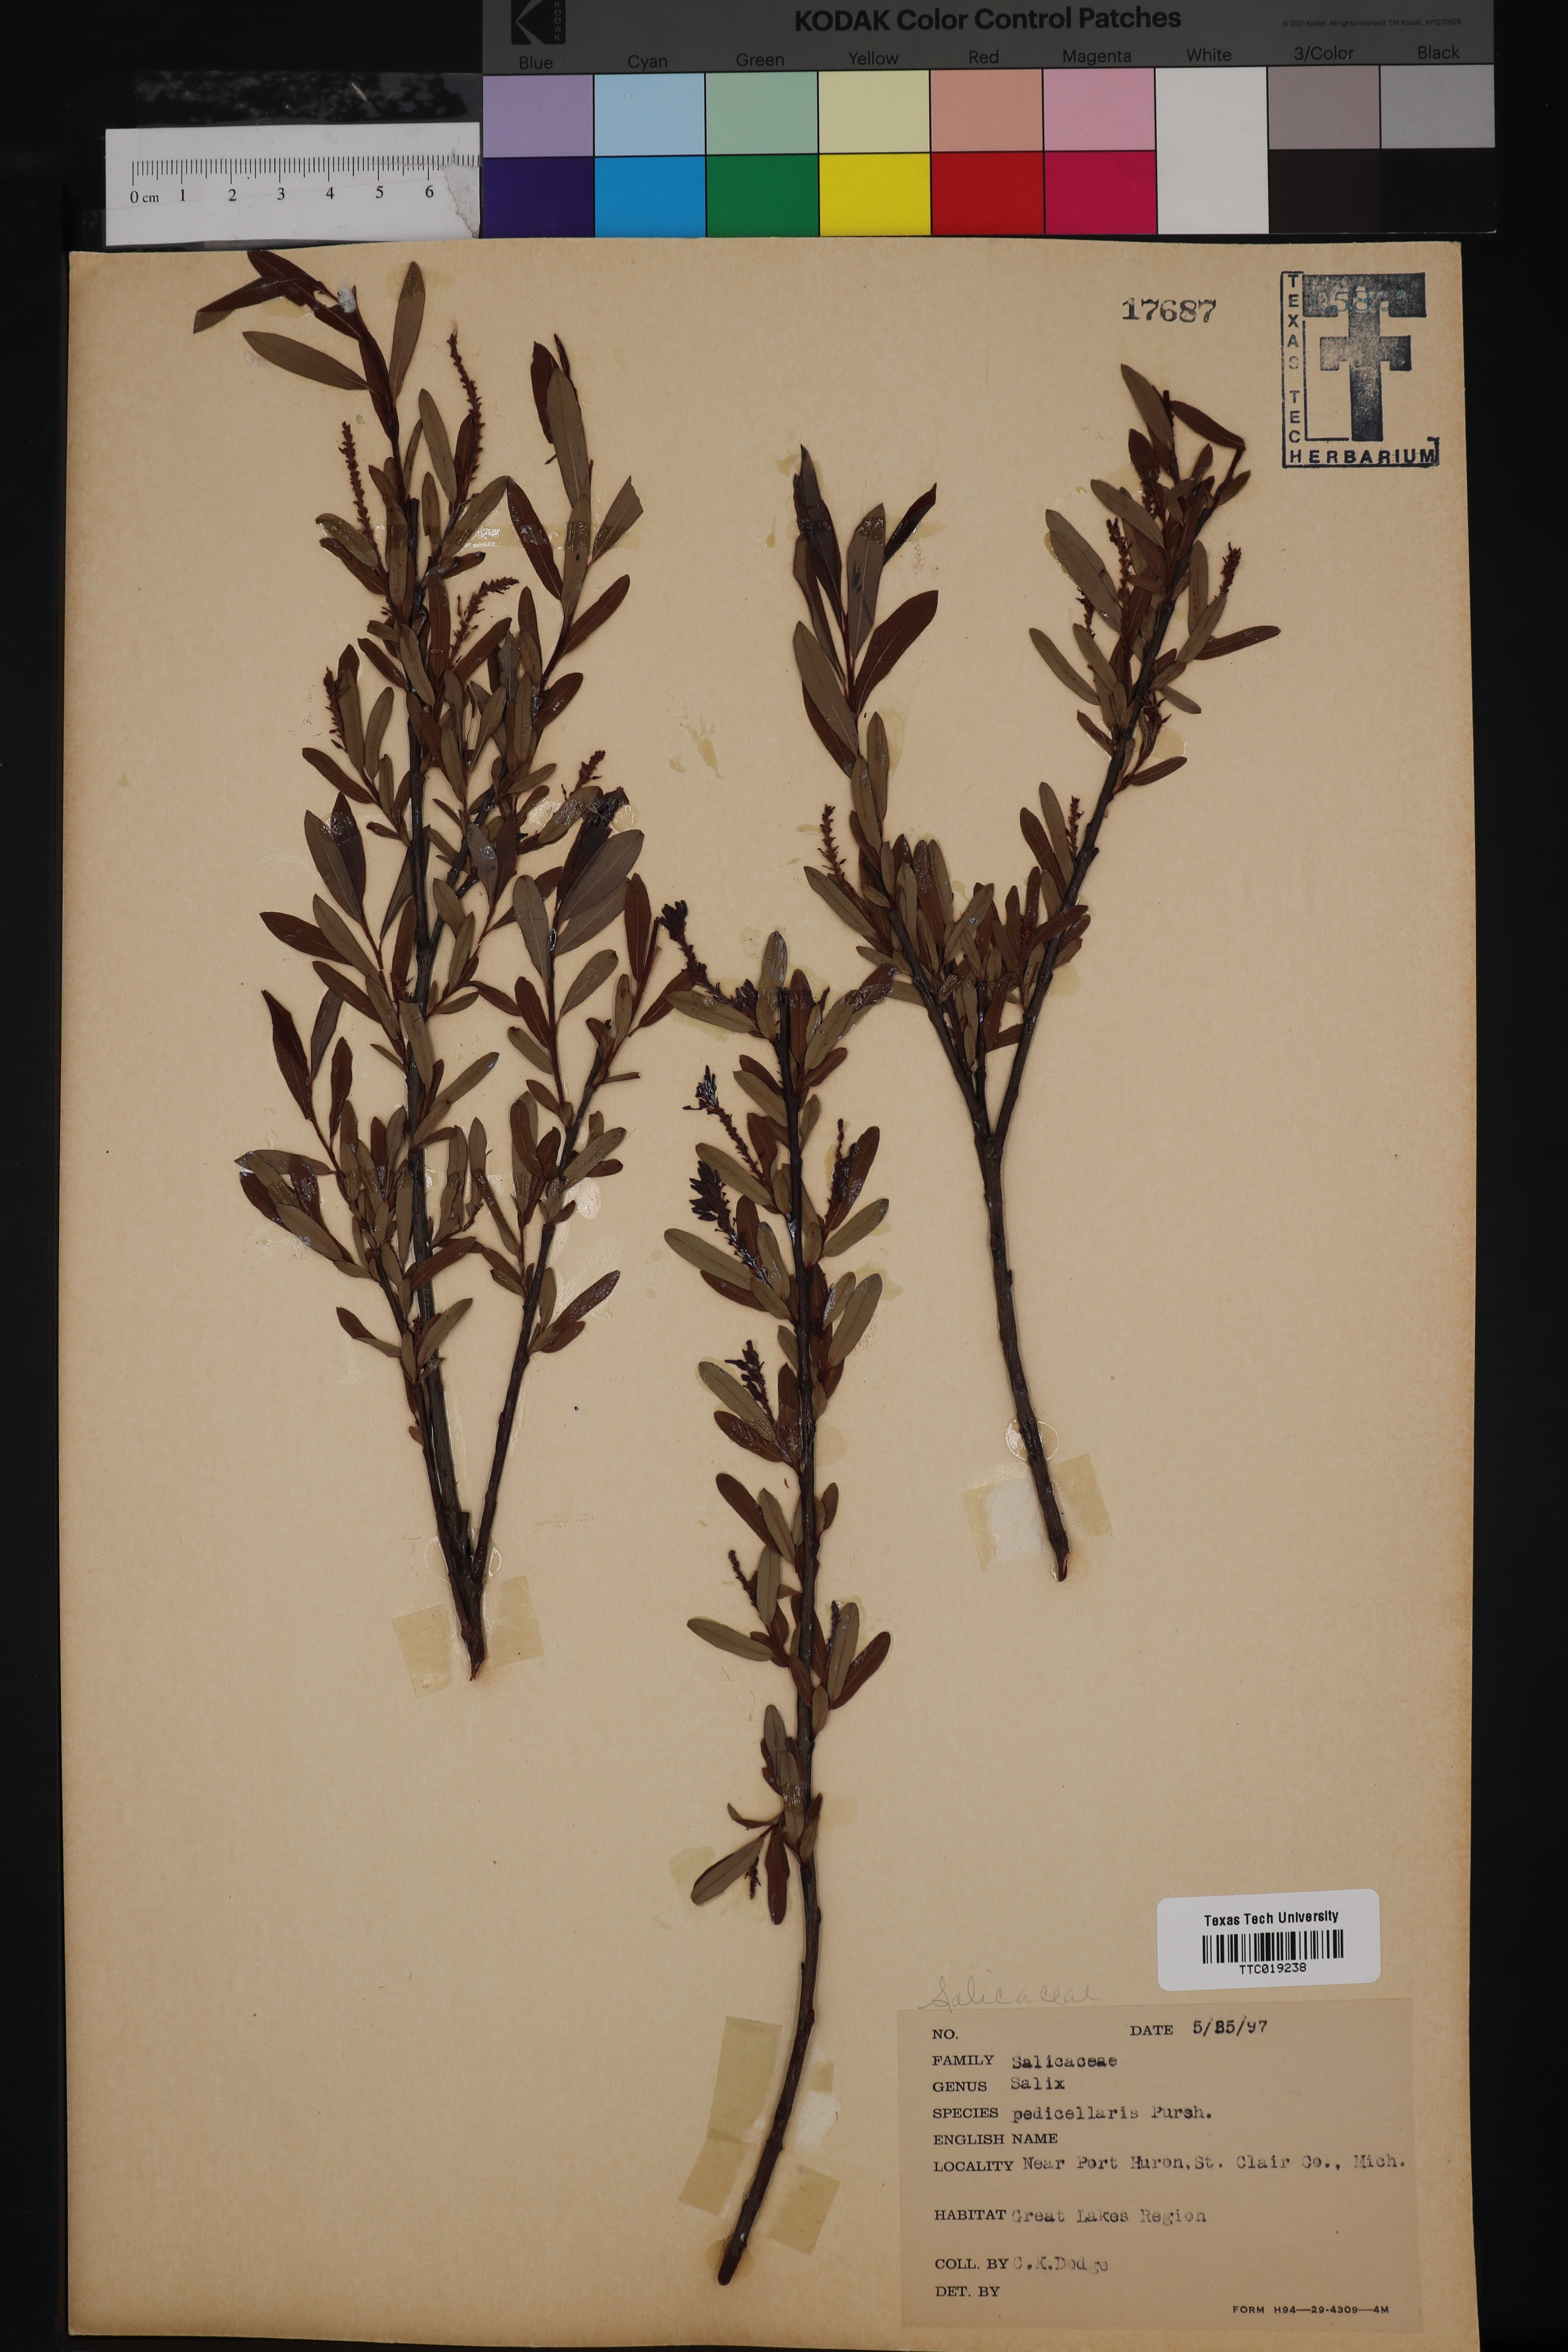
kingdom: Plantae
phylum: Tracheophyta
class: Magnoliopsida
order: Malpighiales
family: Salicaceae
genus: Salix
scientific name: Salix pedicellaris
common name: Bog willow
